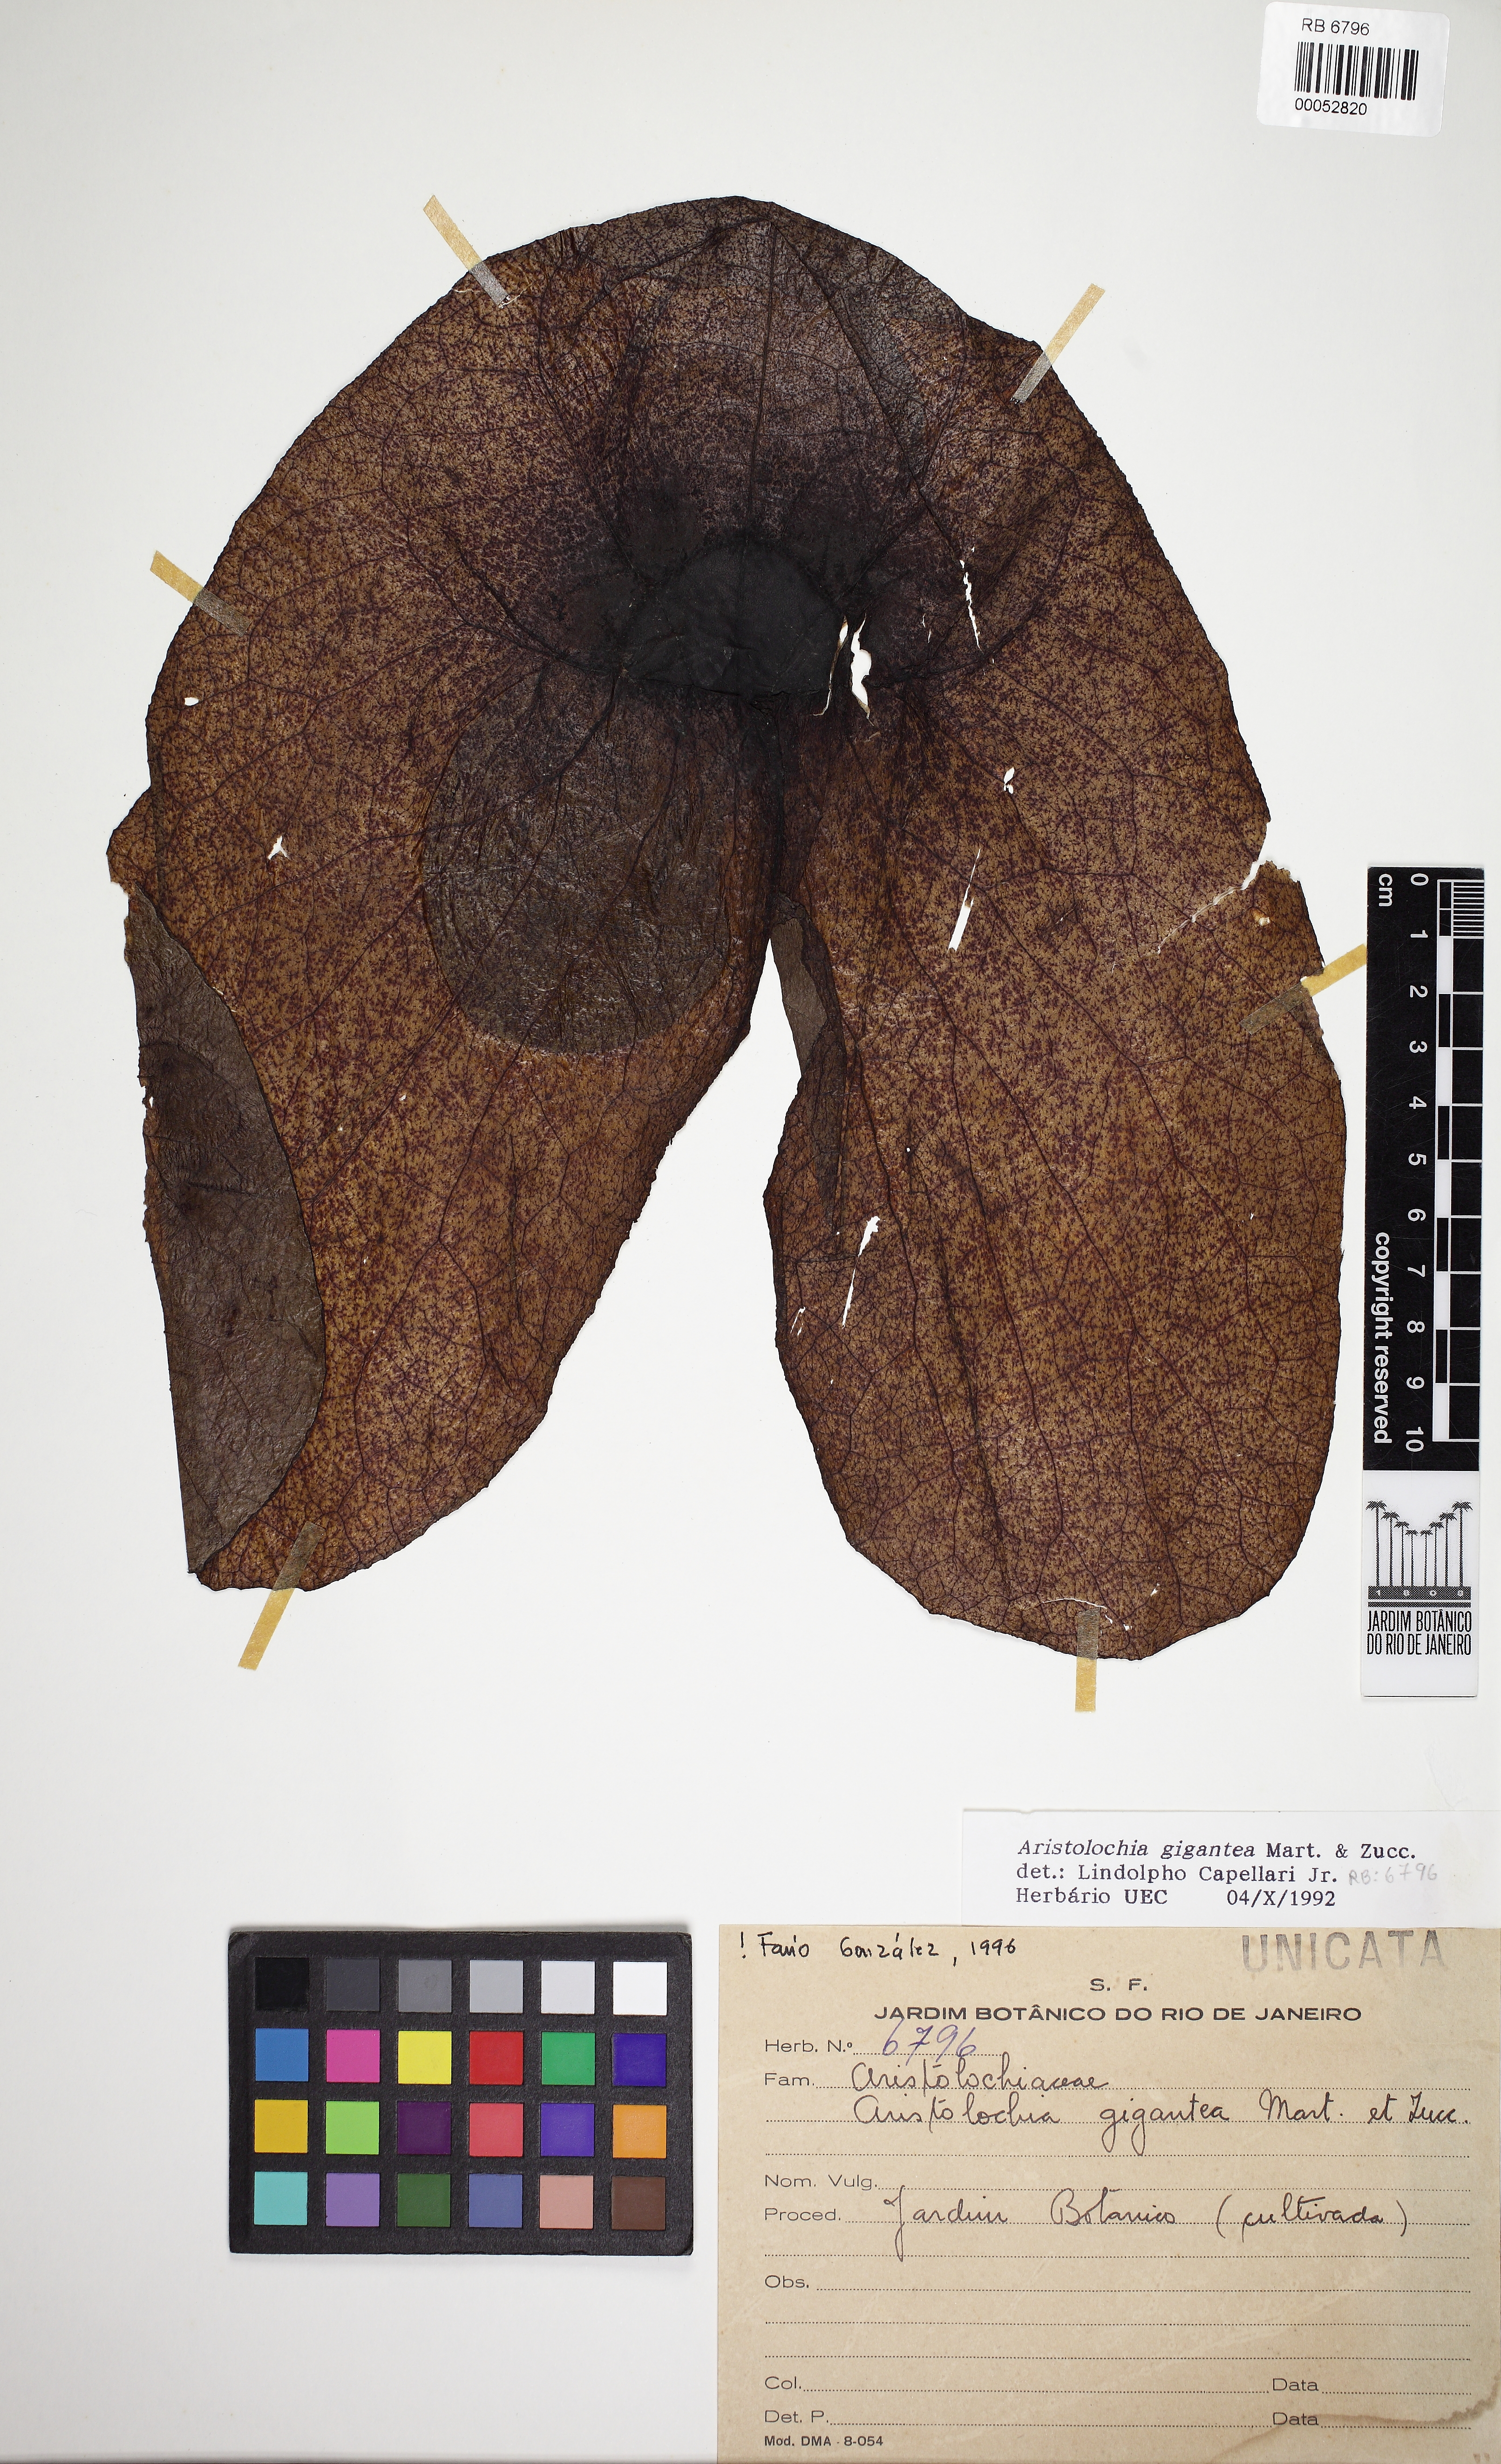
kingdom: Plantae
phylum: Tracheophyta
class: Magnoliopsida
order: Piperales
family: Aristolochiaceae
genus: Aristolochia
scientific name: Aristolochia gigantea
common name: Duckflower
